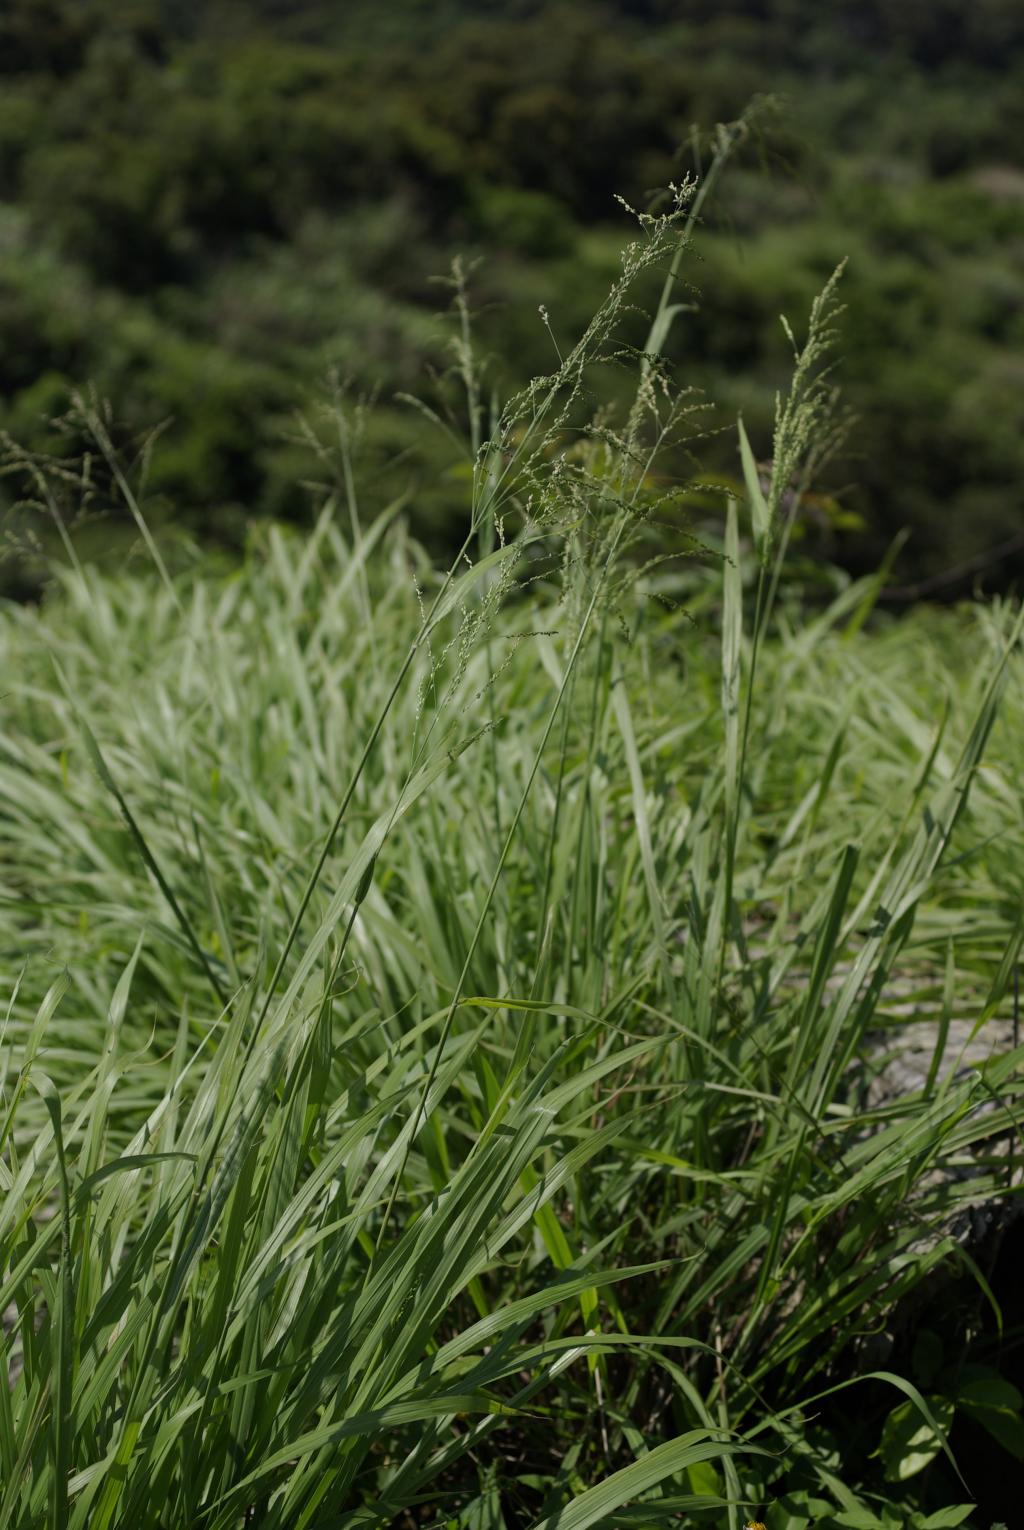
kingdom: Plantae
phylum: Tracheophyta
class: Liliopsida
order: Poales
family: Poaceae
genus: Megathyrsus
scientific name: Megathyrsus maximus
